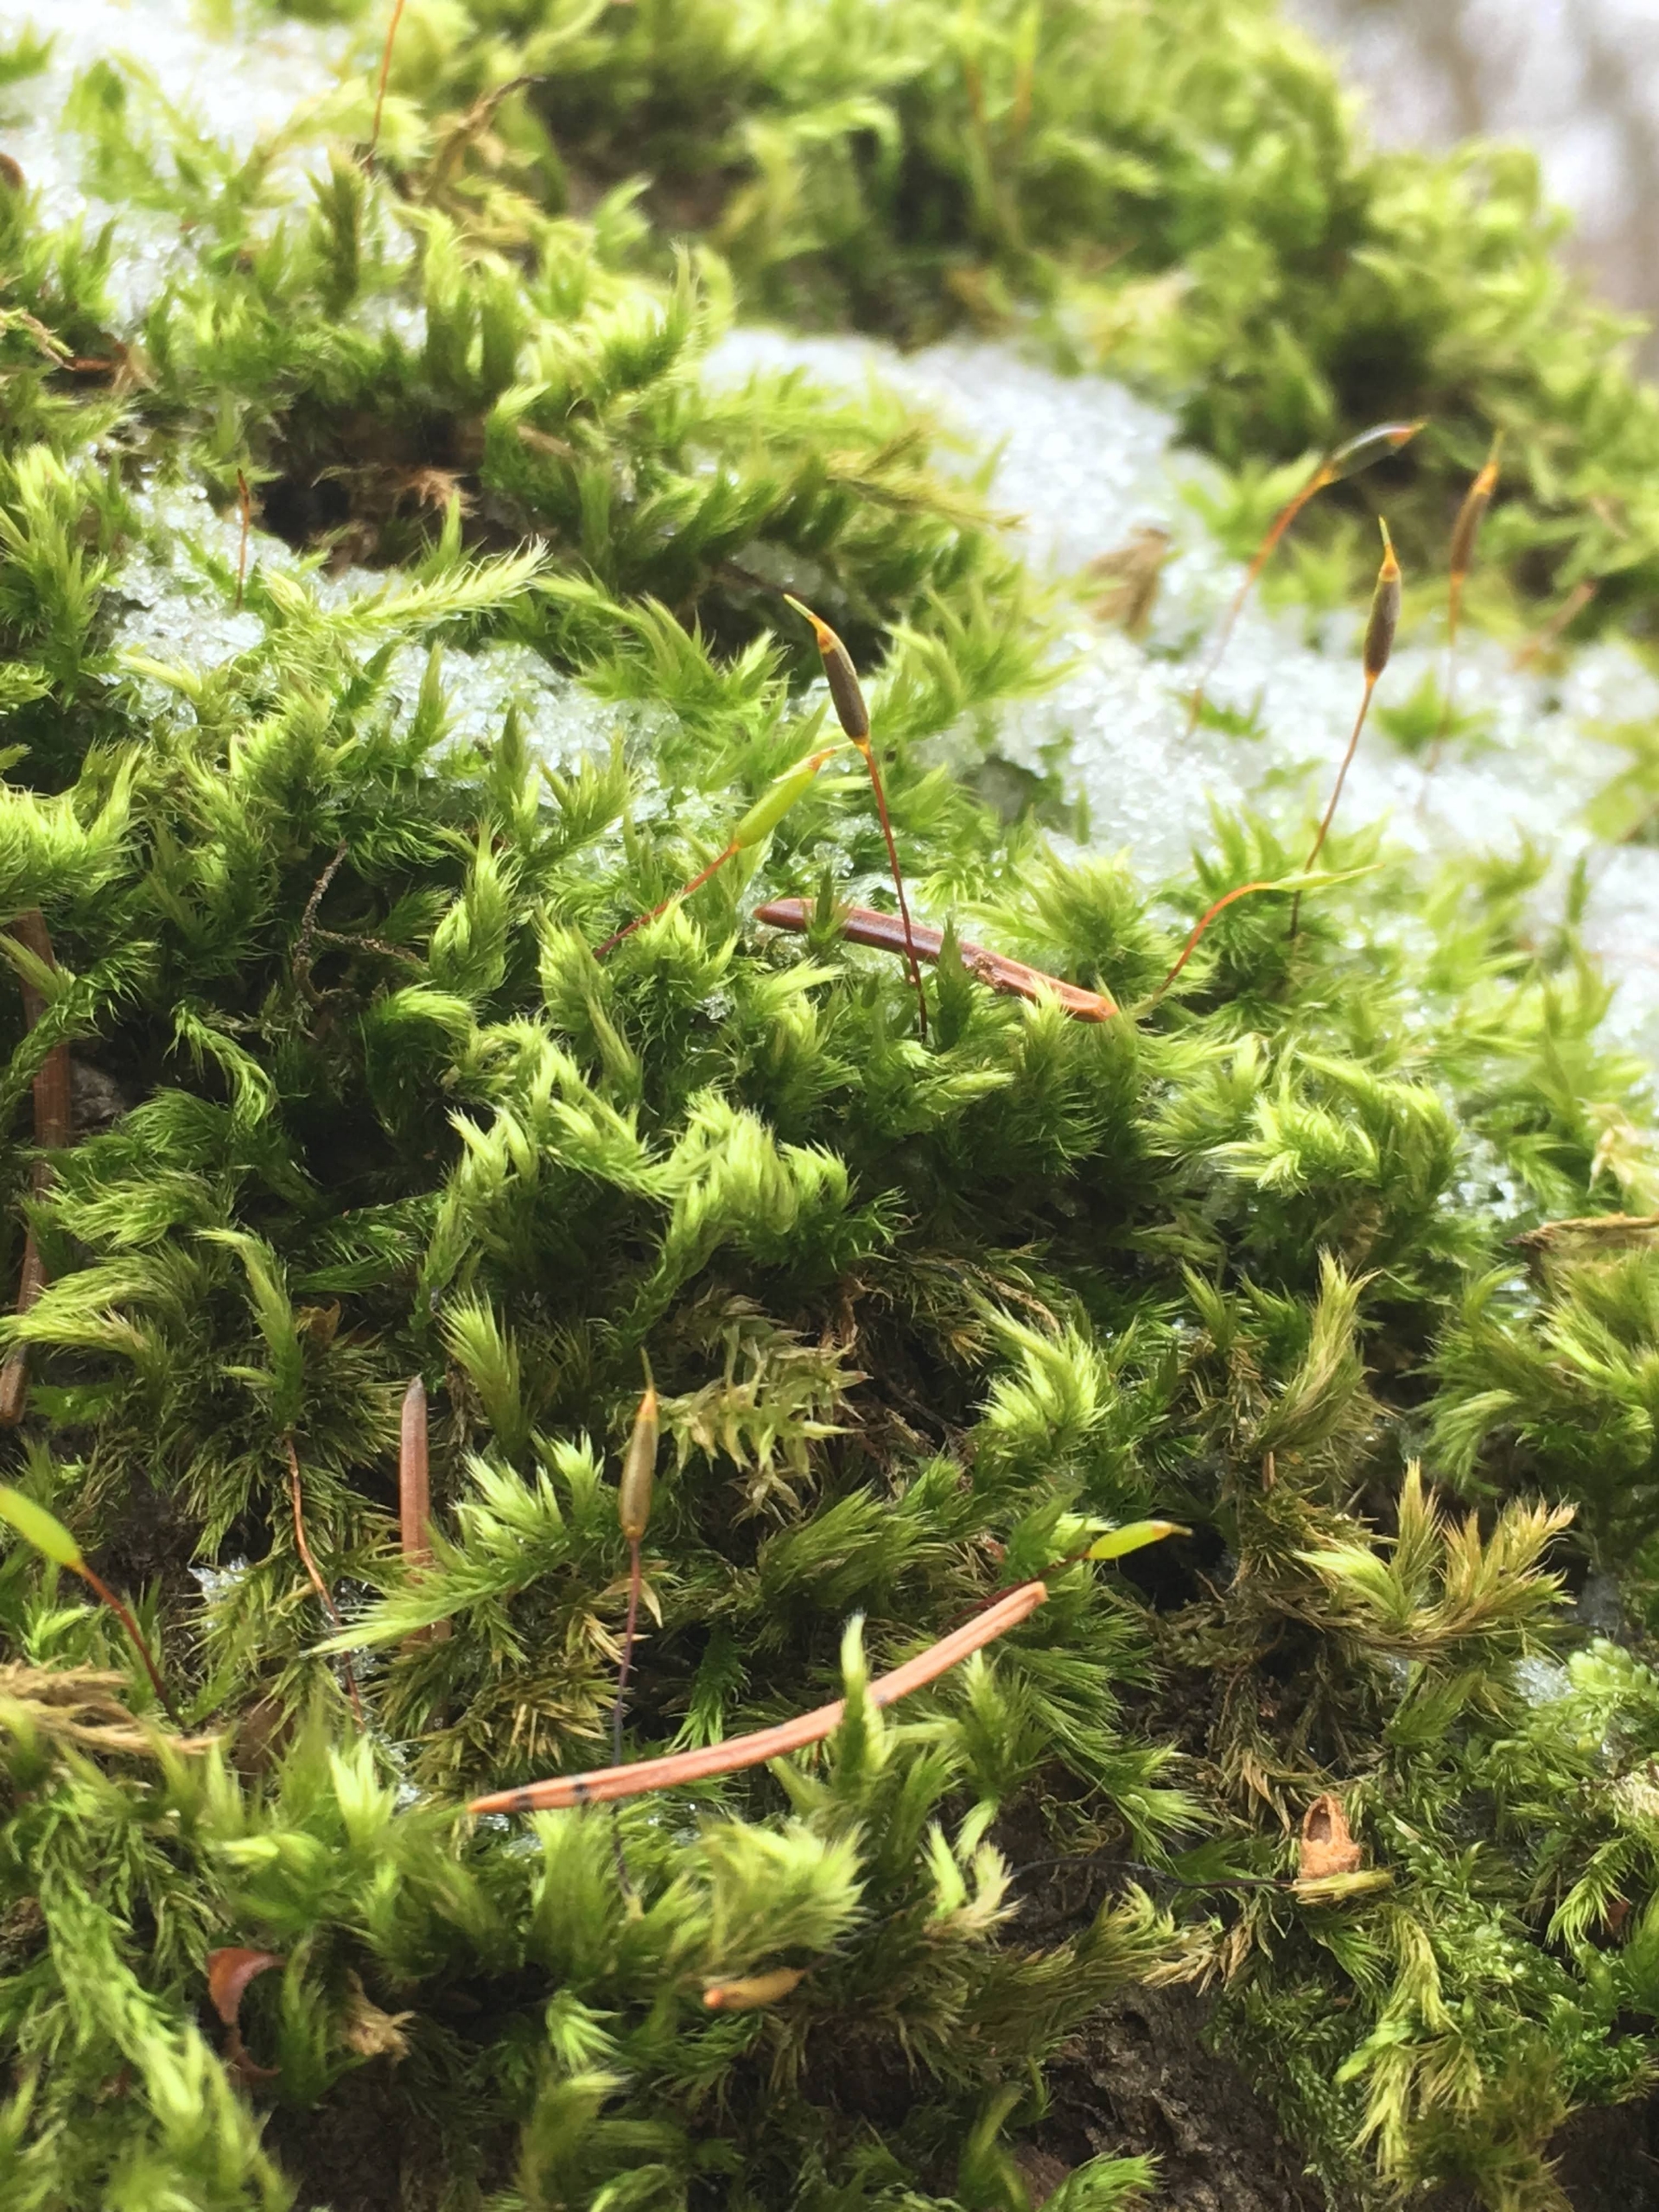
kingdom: Plantae
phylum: Bryophyta
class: Bryopsida
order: Hypnales
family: Brachytheciaceae
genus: Homalothecium
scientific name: Homalothecium sericeum
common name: Krybende silkemos
